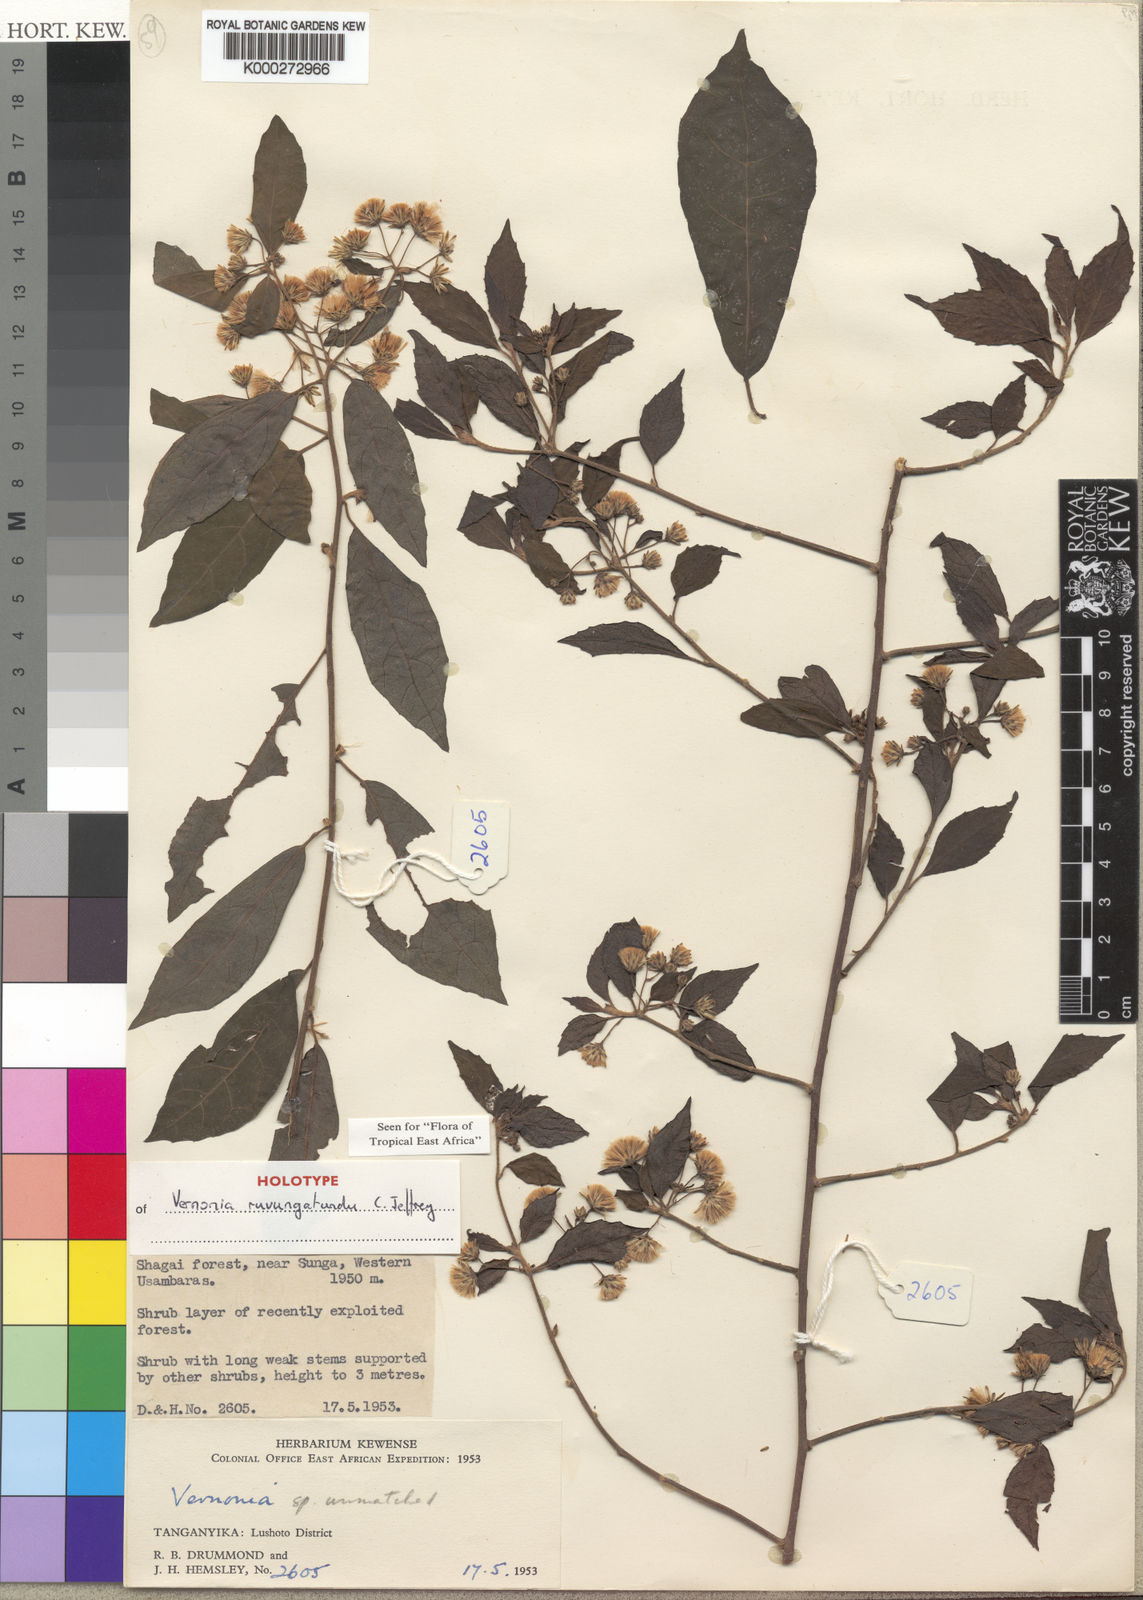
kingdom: Plantae
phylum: Tracheophyta
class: Magnoliopsida
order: Asterales
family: Asteraceae
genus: Vernonia
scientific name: Vernonia ruvungatundu
